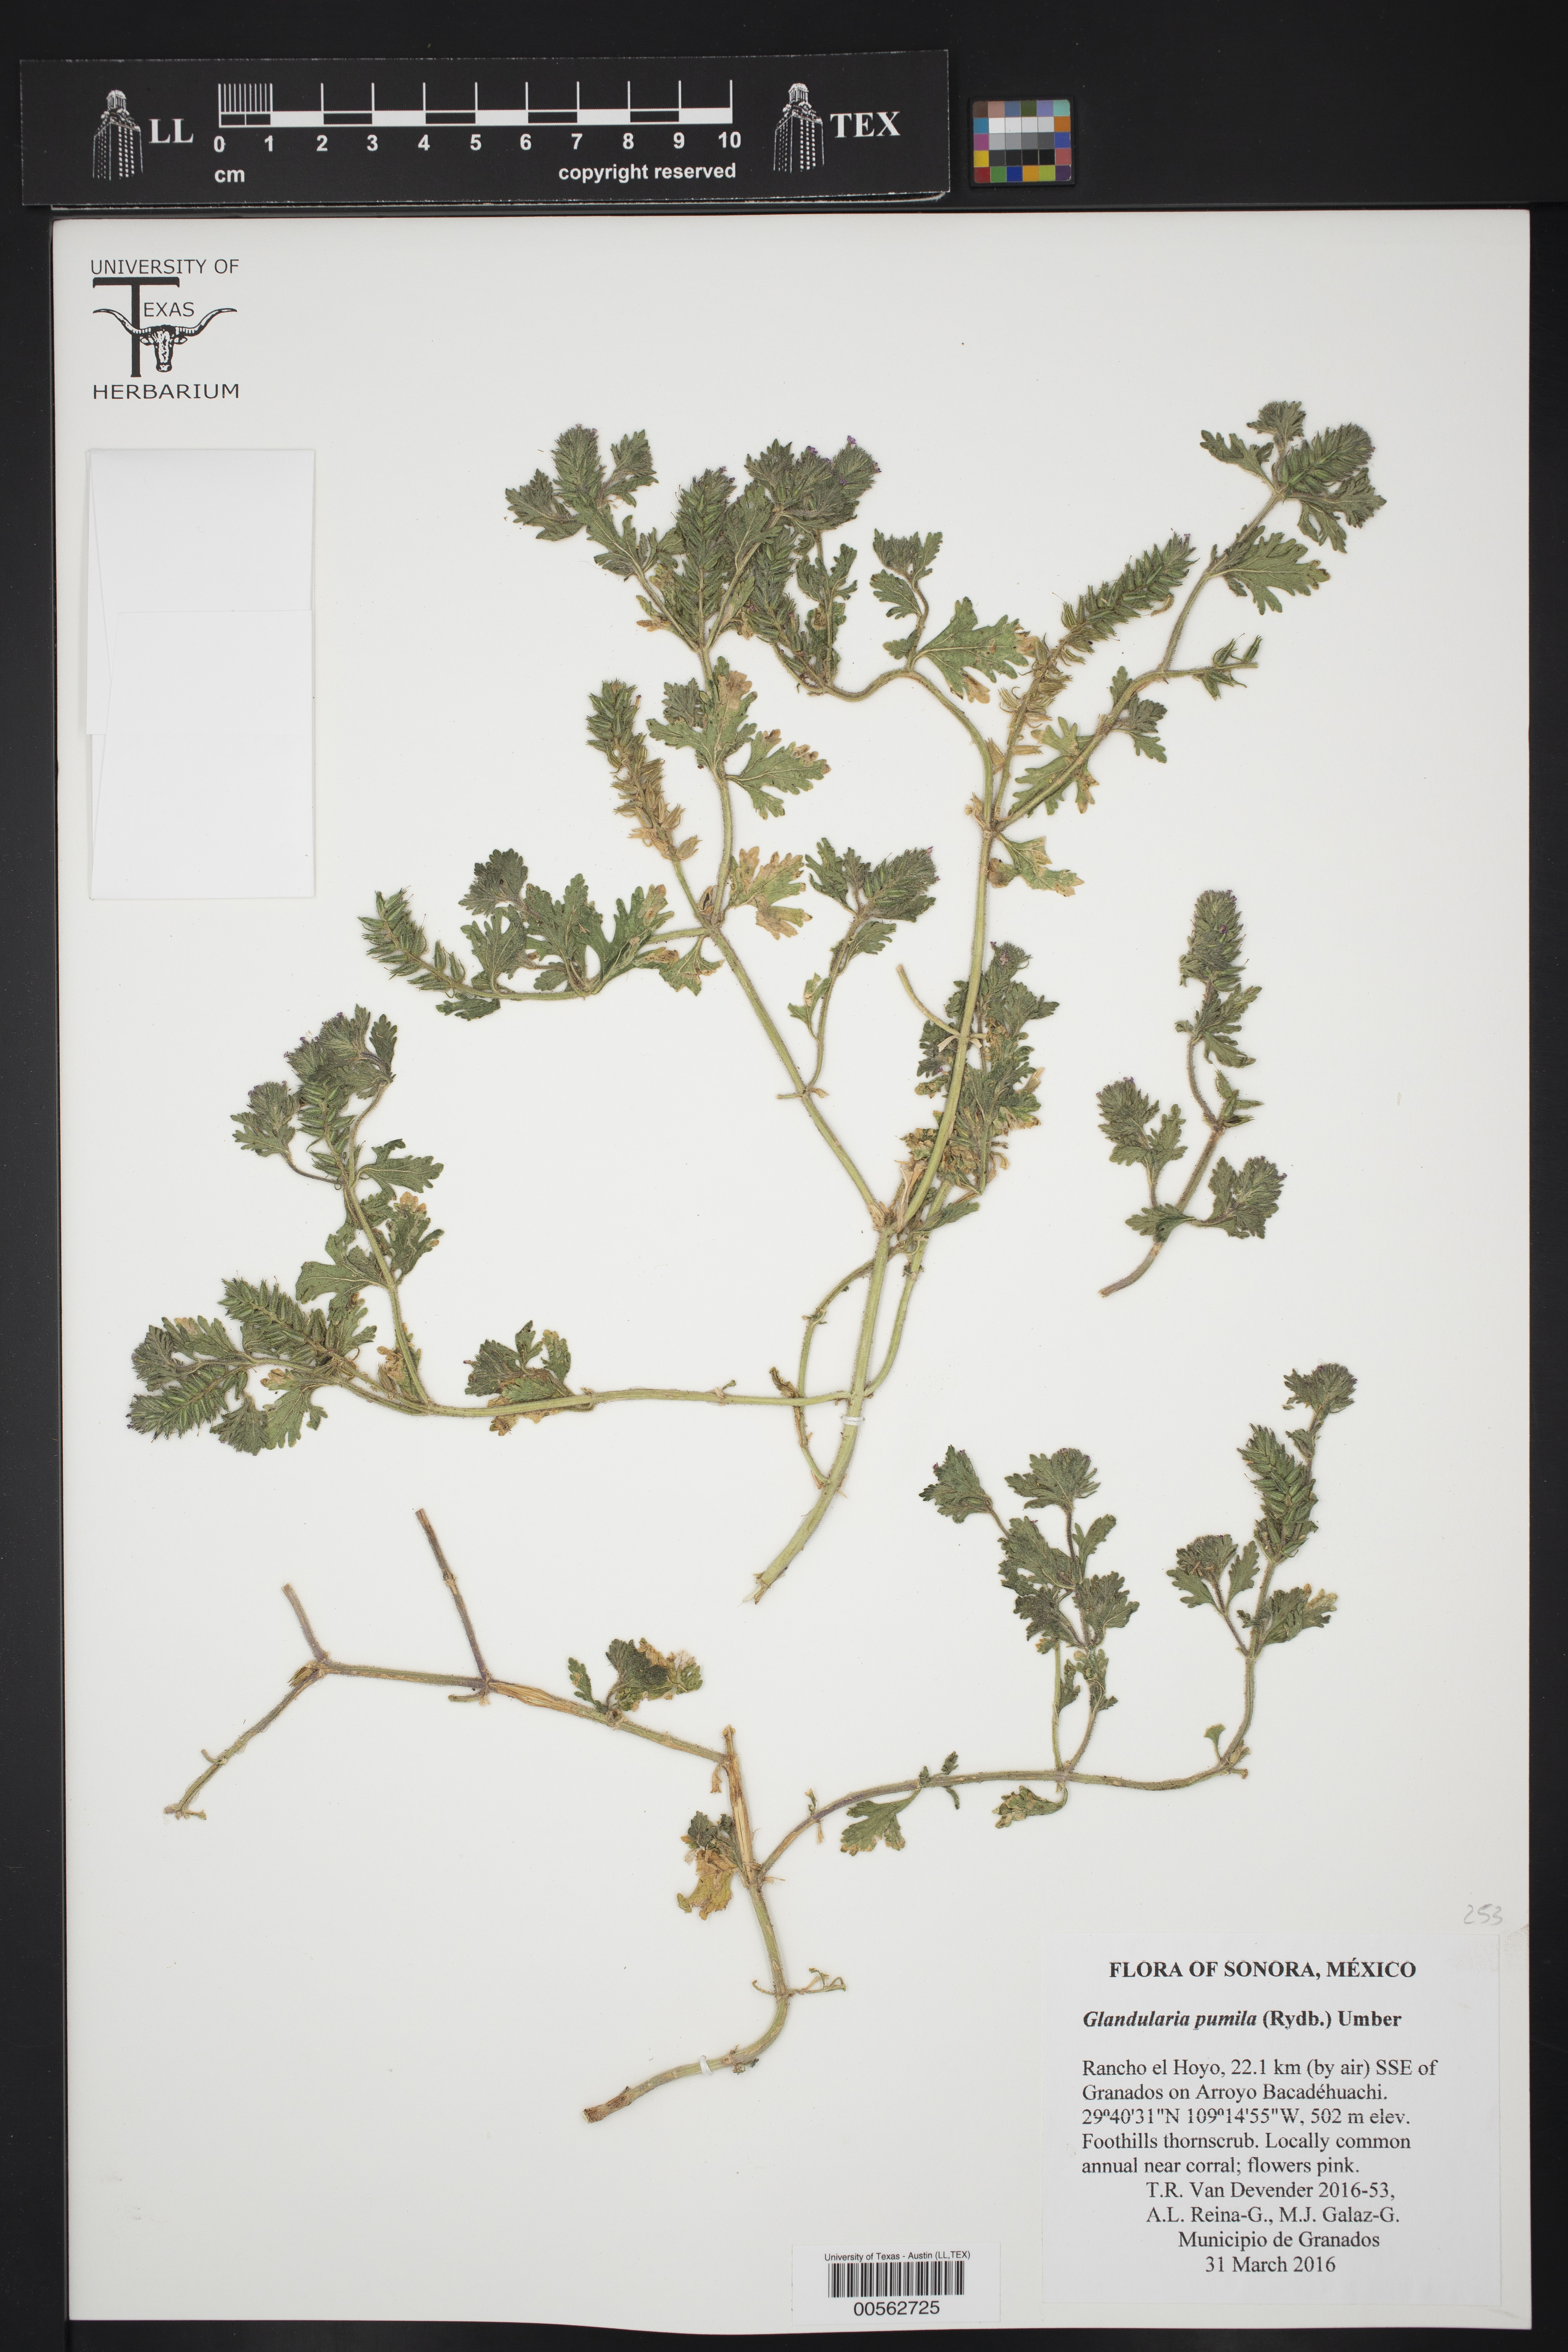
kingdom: Plantae
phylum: Tracheophyta
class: Magnoliopsida
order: Lamiales
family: Verbenaceae
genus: Verbena
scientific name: Verbena pumila
